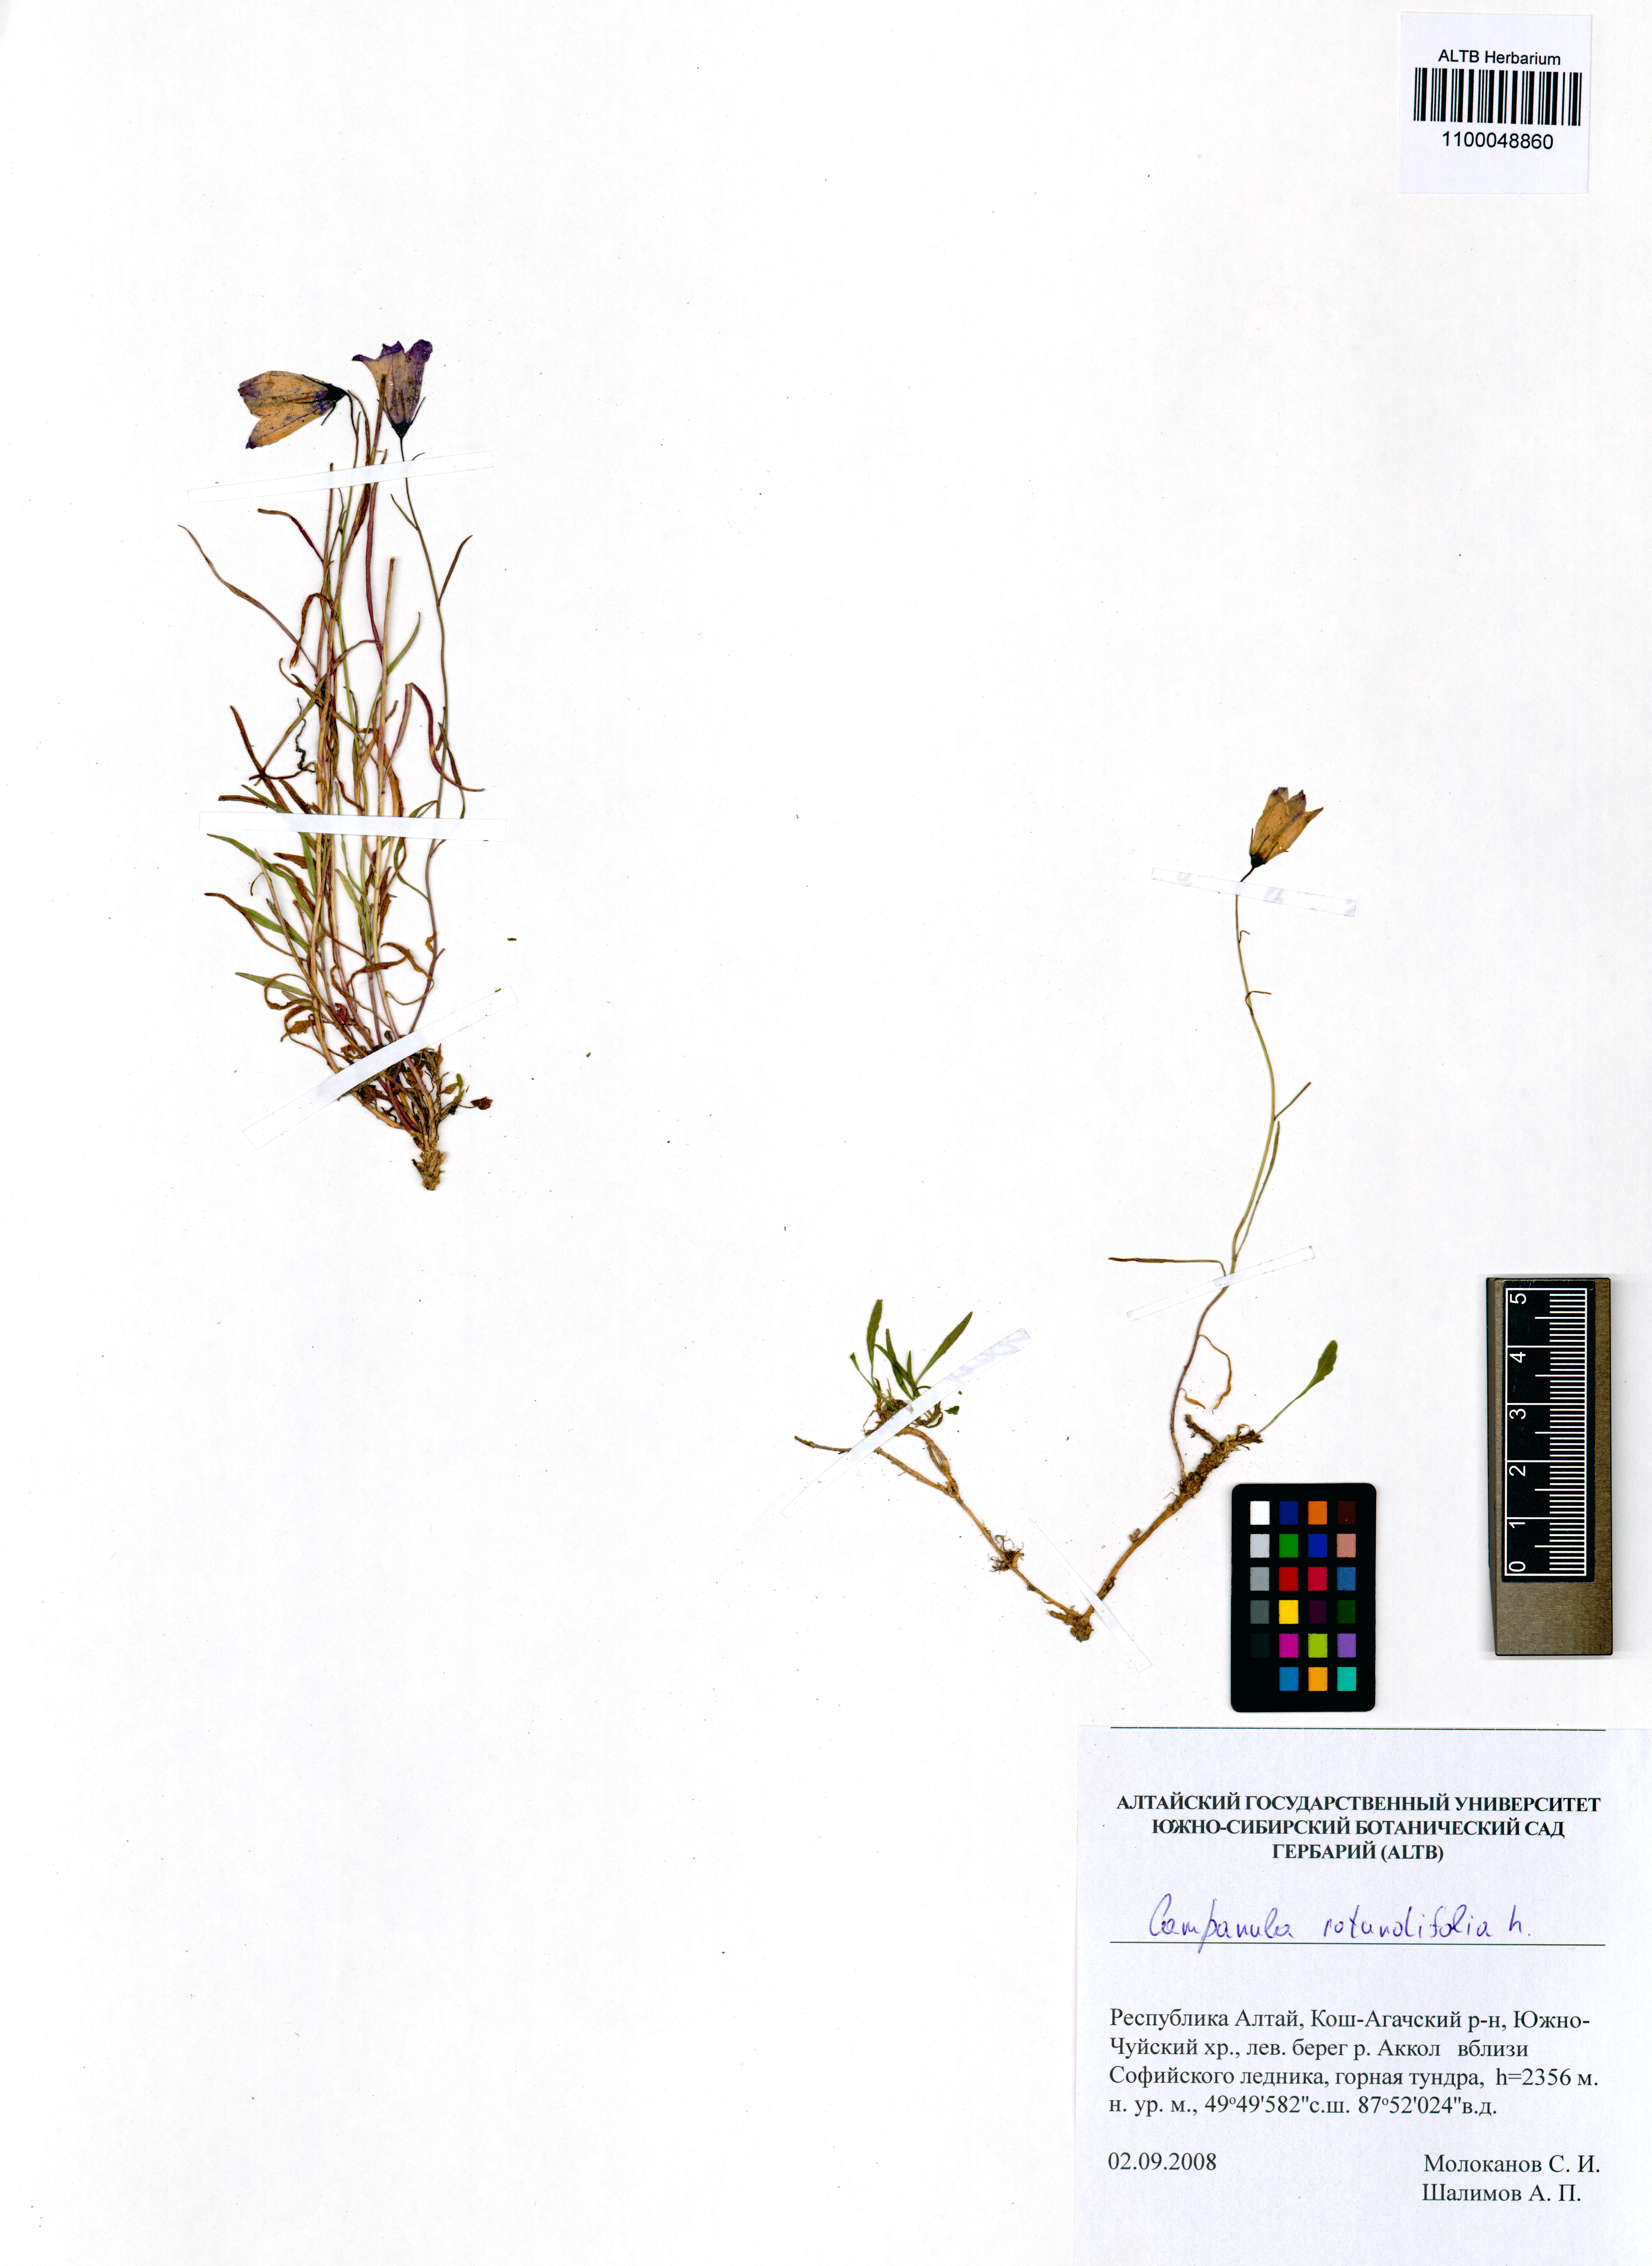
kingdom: Plantae
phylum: Tracheophyta
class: Magnoliopsida
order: Asterales
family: Campanulaceae
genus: Campanula
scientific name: Campanula rotundifolia
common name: Harebell
